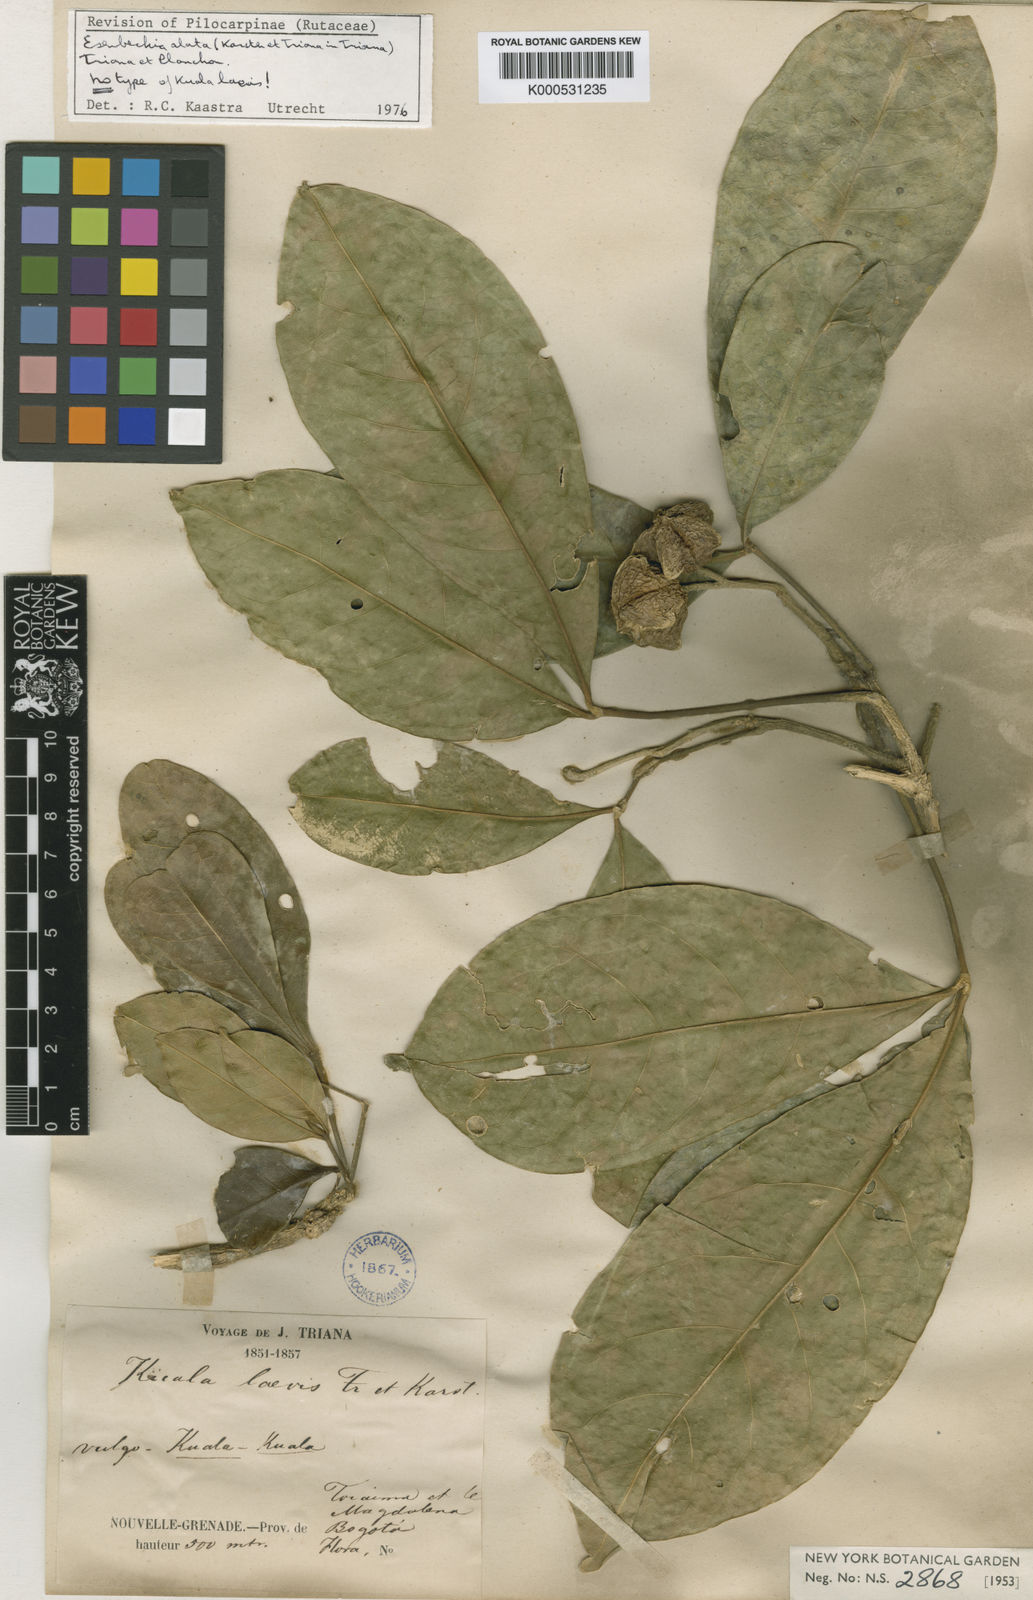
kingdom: Plantae
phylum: Tracheophyta
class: Magnoliopsida
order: Sapindales
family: Rutaceae
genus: Esenbeckia
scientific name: Esenbeckia alata
